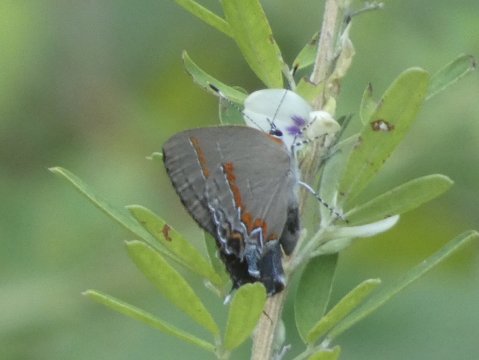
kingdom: Animalia
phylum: Arthropoda
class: Insecta
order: Lepidoptera
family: Lycaenidae
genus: Calycopis
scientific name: Calycopis cecrops
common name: Red-banded Hairstreak
